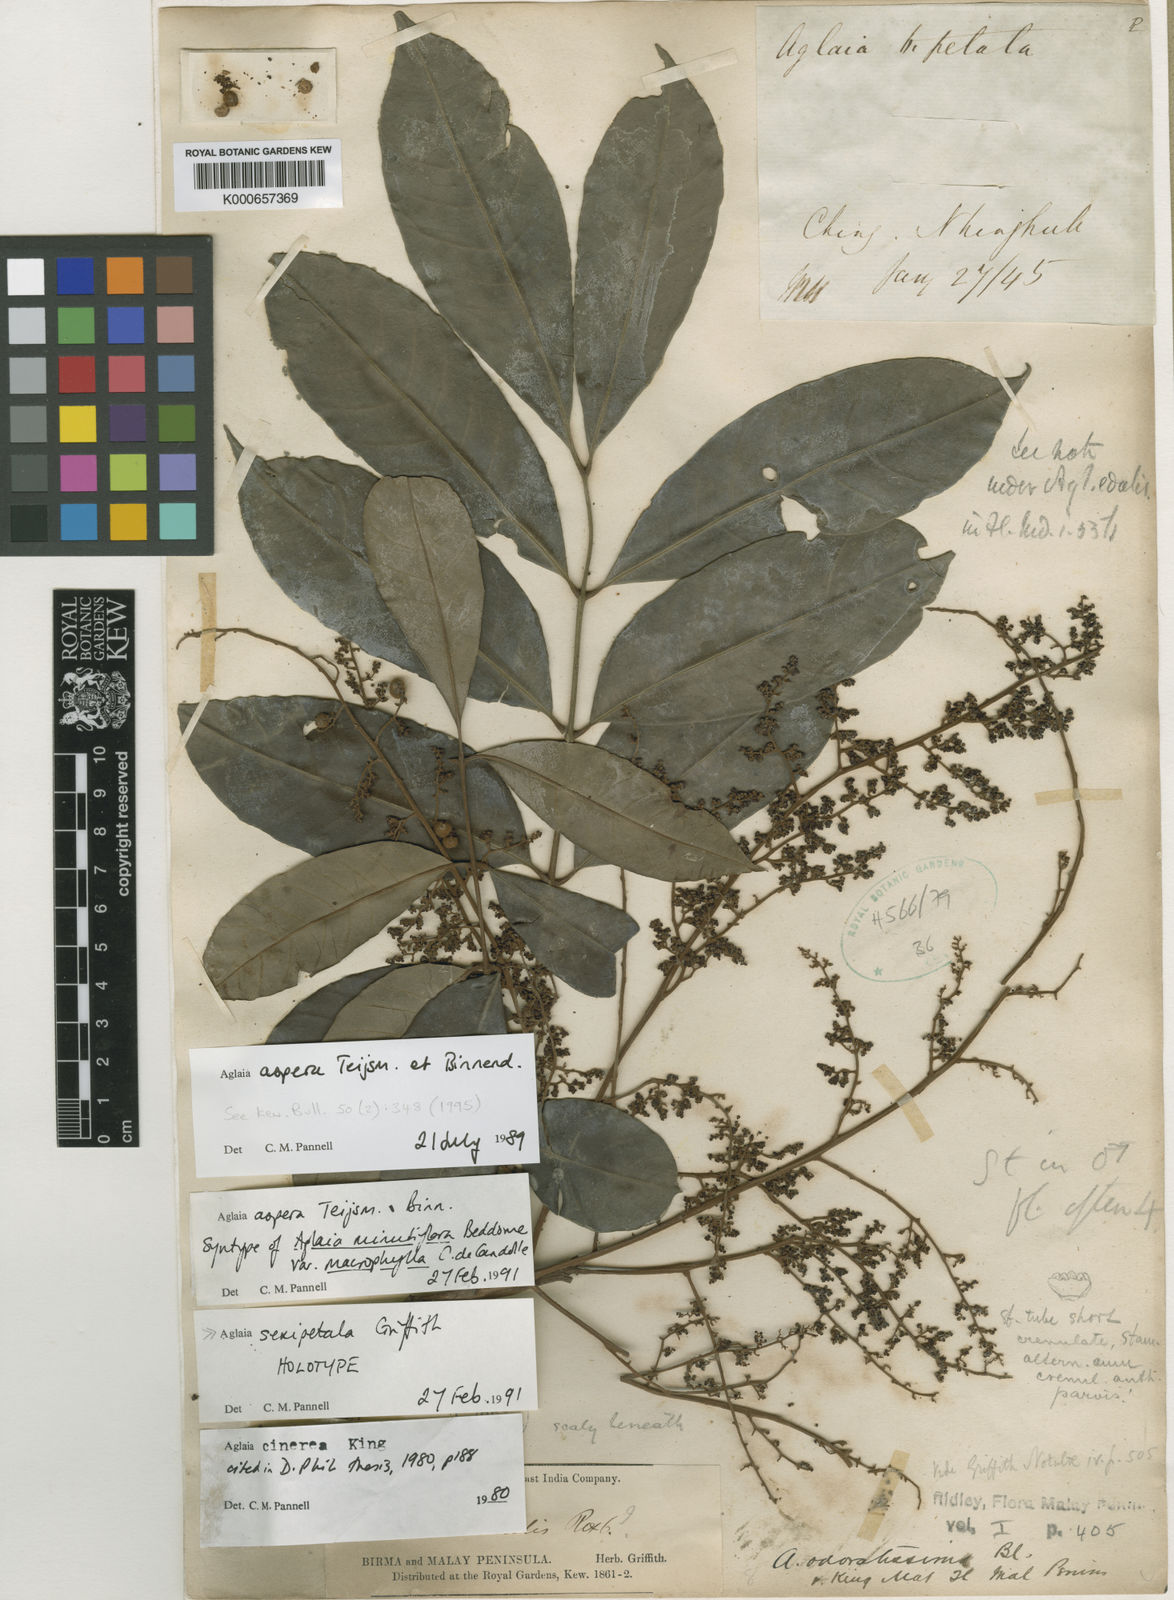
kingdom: Plantae
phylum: Tracheophyta
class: Magnoliopsida
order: Sapindales
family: Meliaceae
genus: Aglaia
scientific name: Aglaia sexipetala
